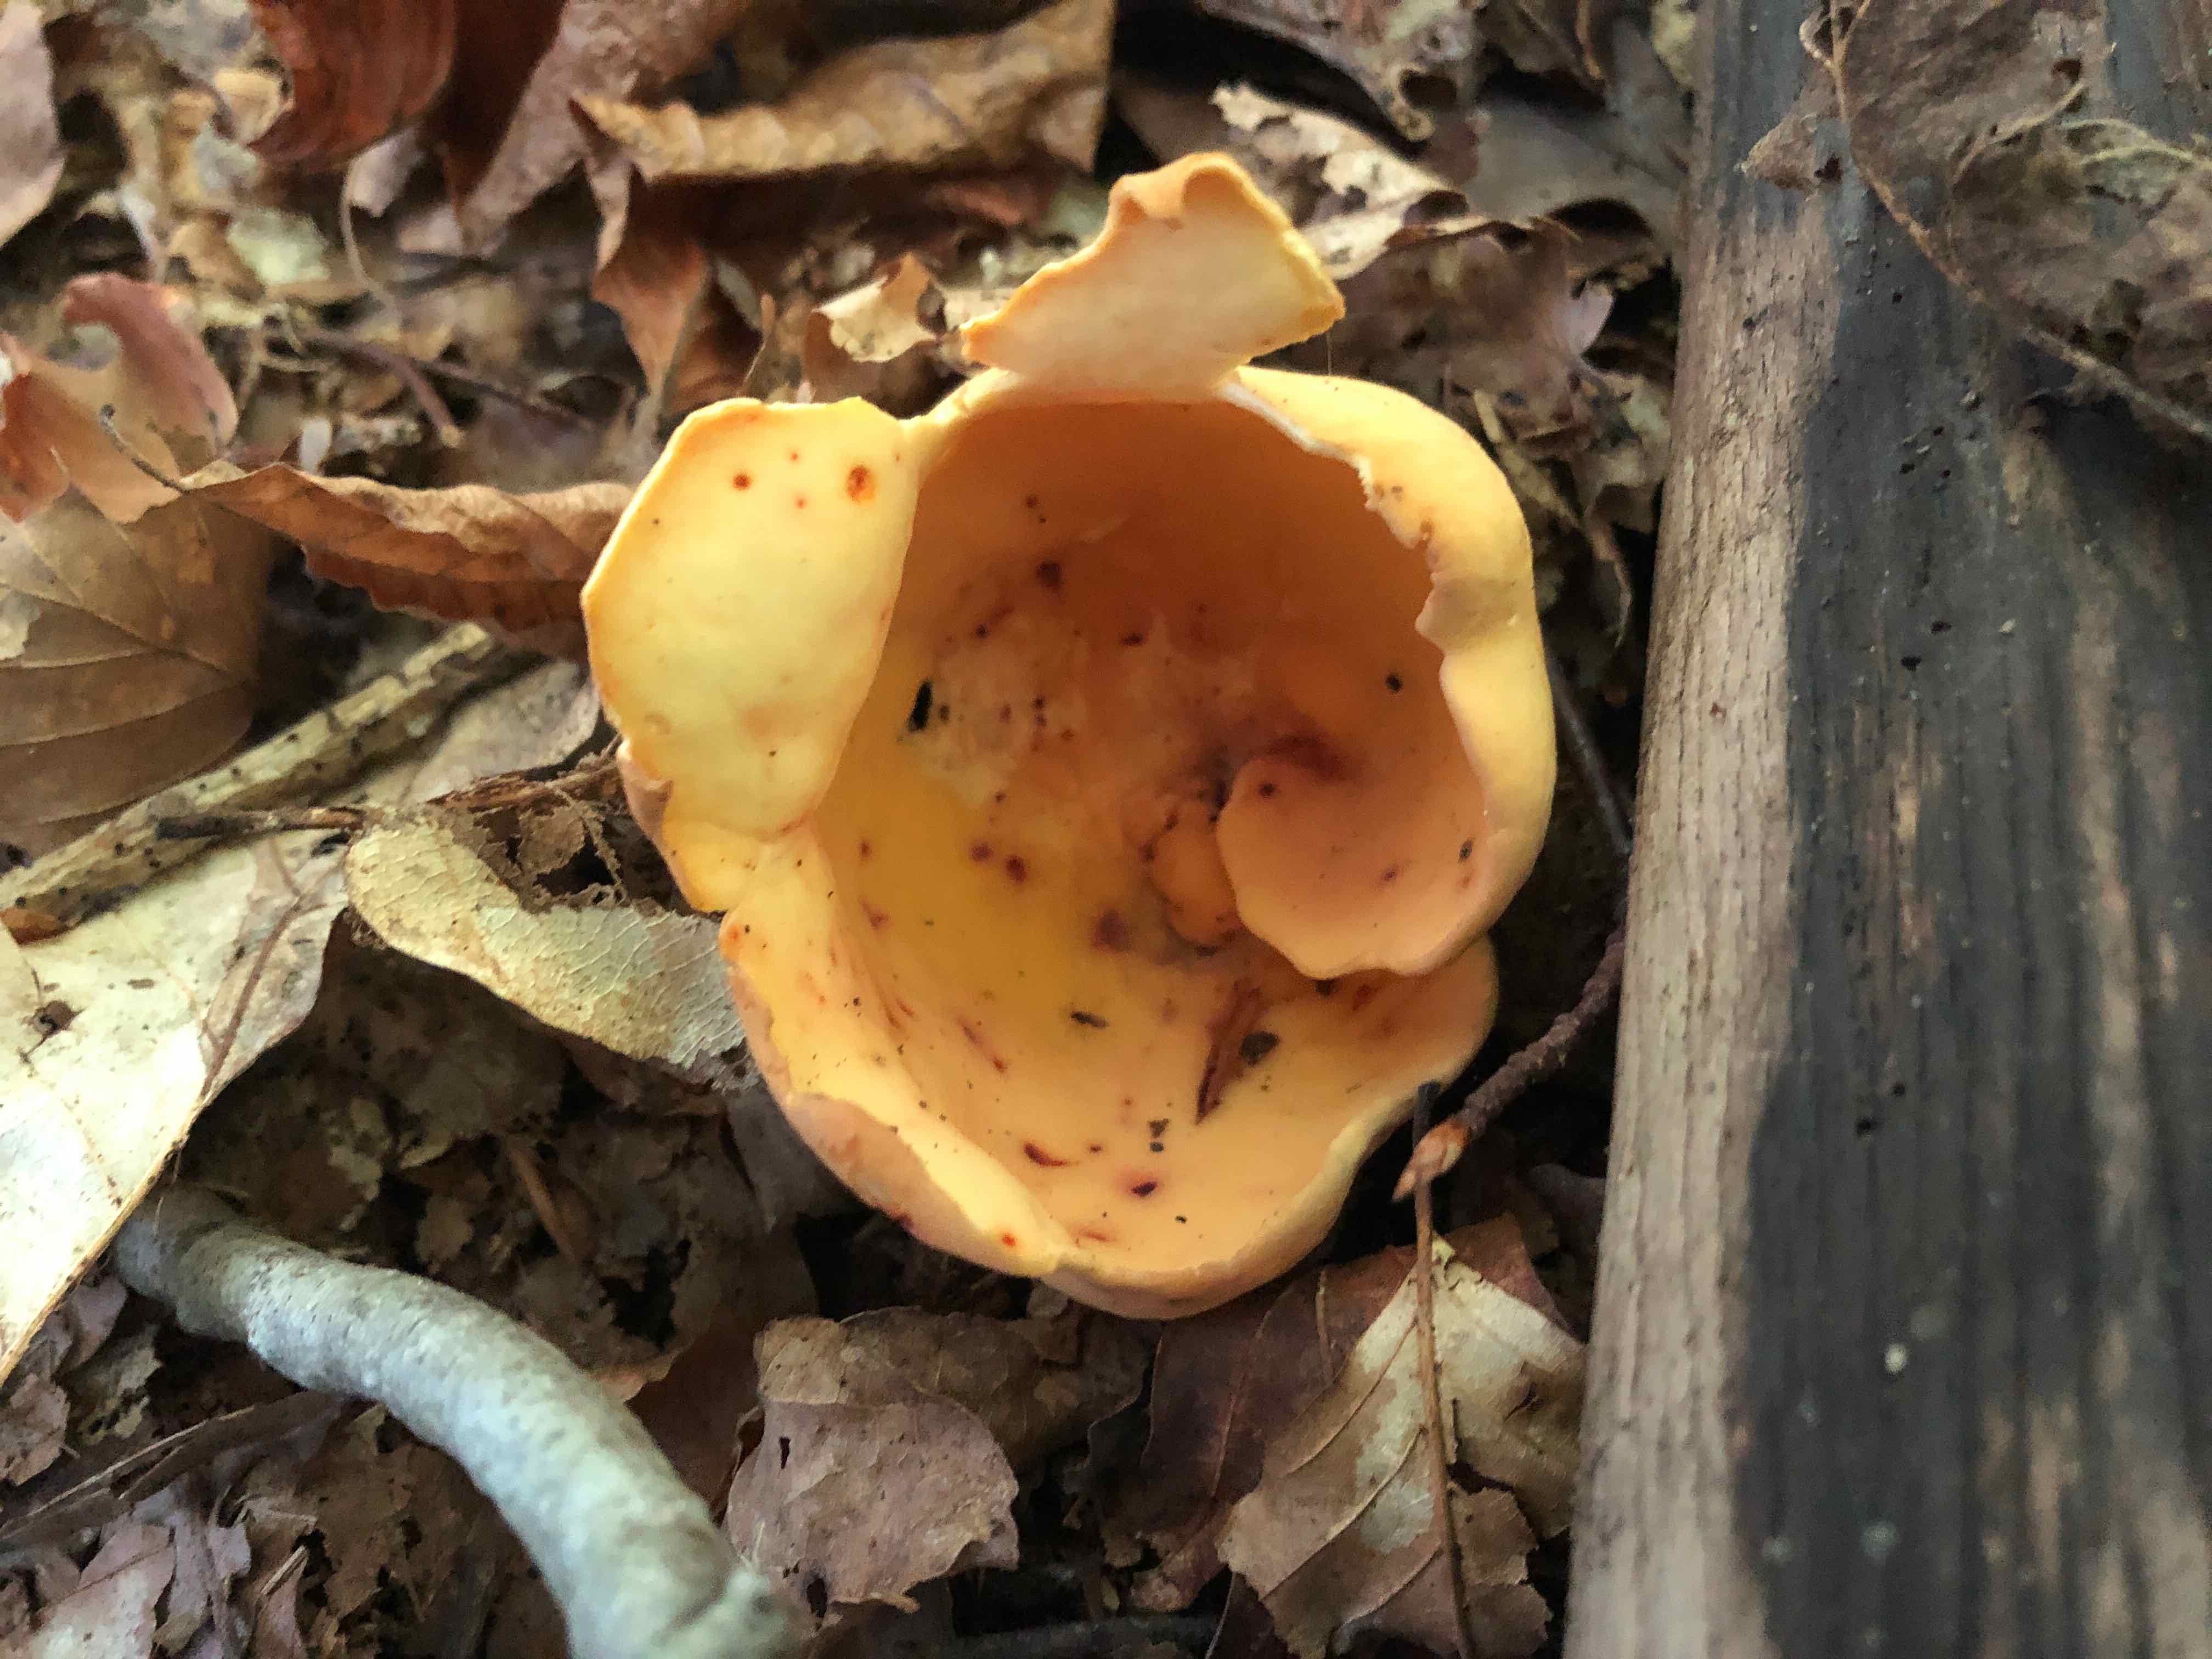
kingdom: Fungi
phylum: Ascomycota
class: Pezizomycetes
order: Pezizales
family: Otideaceae
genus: Otidea
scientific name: Otidea onotica
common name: æsel-ørebæger
